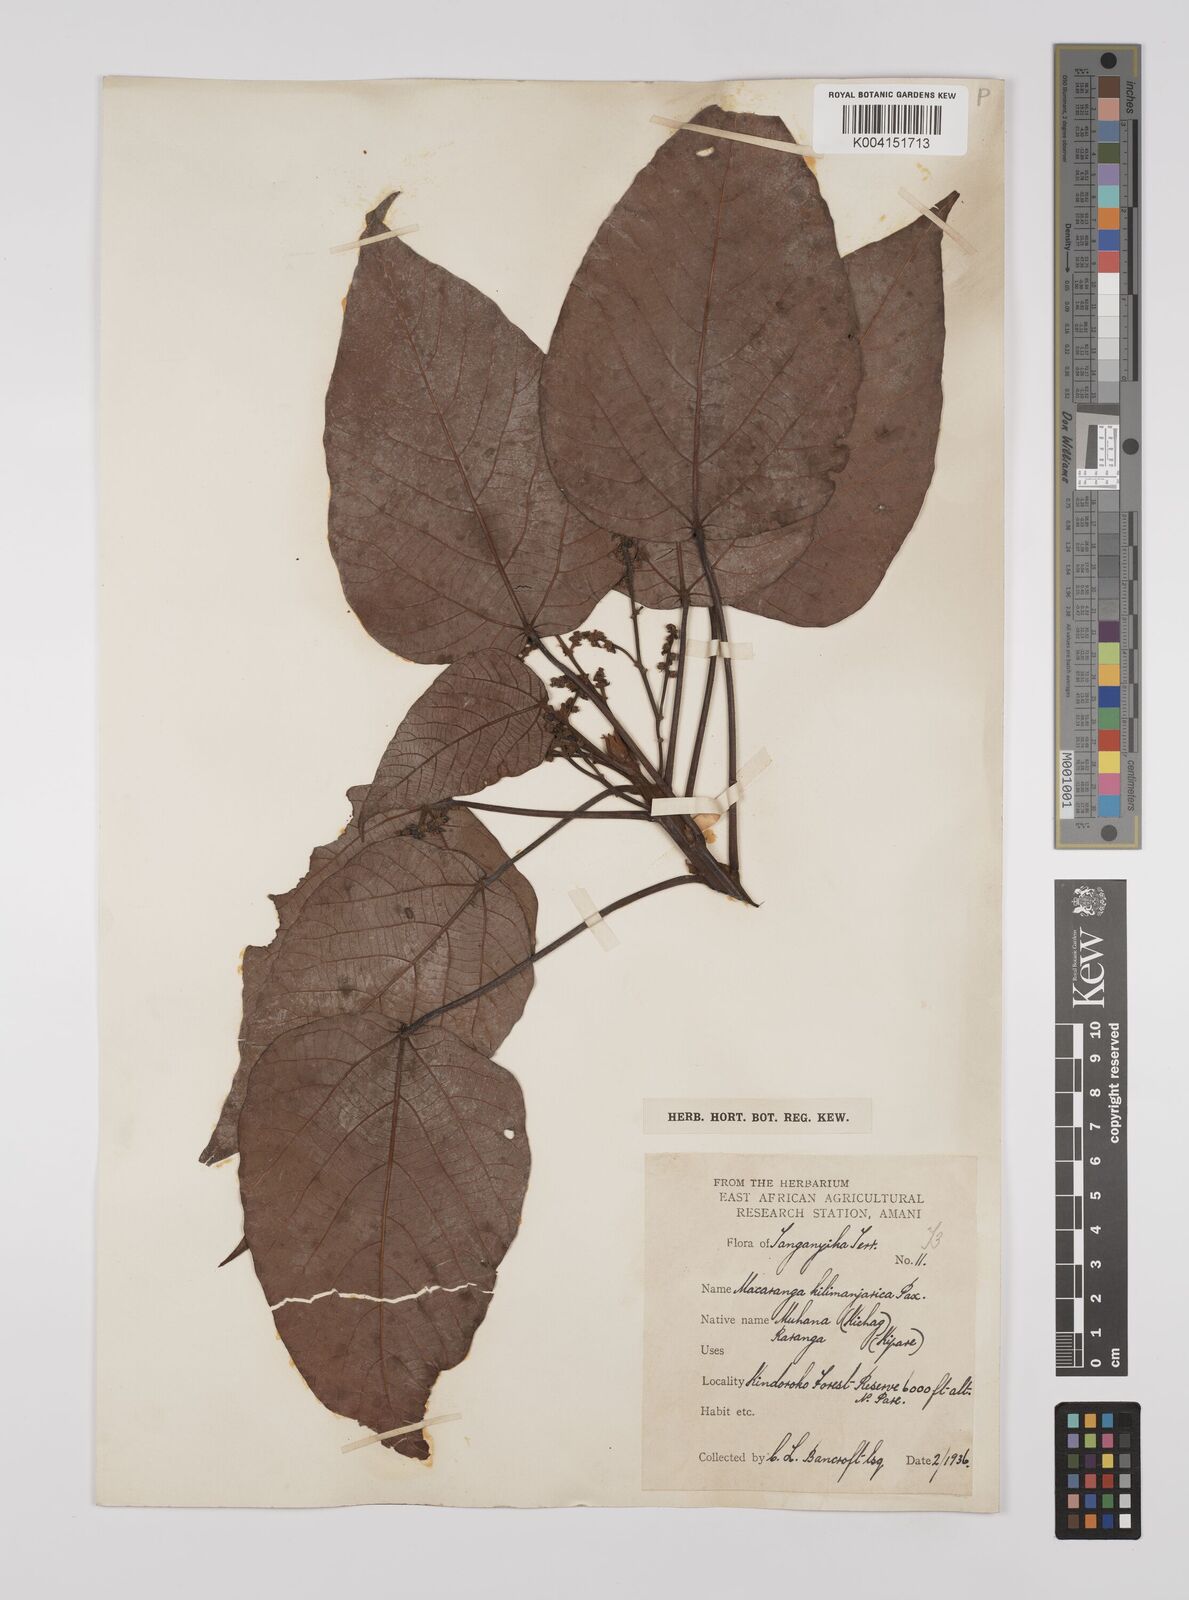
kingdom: Plantae
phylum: Tracheophyta
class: Magnoliopsida
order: Malpighiales
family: Euphorbiaceae
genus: Macaranga
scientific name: Macaranga kilimandscharica
